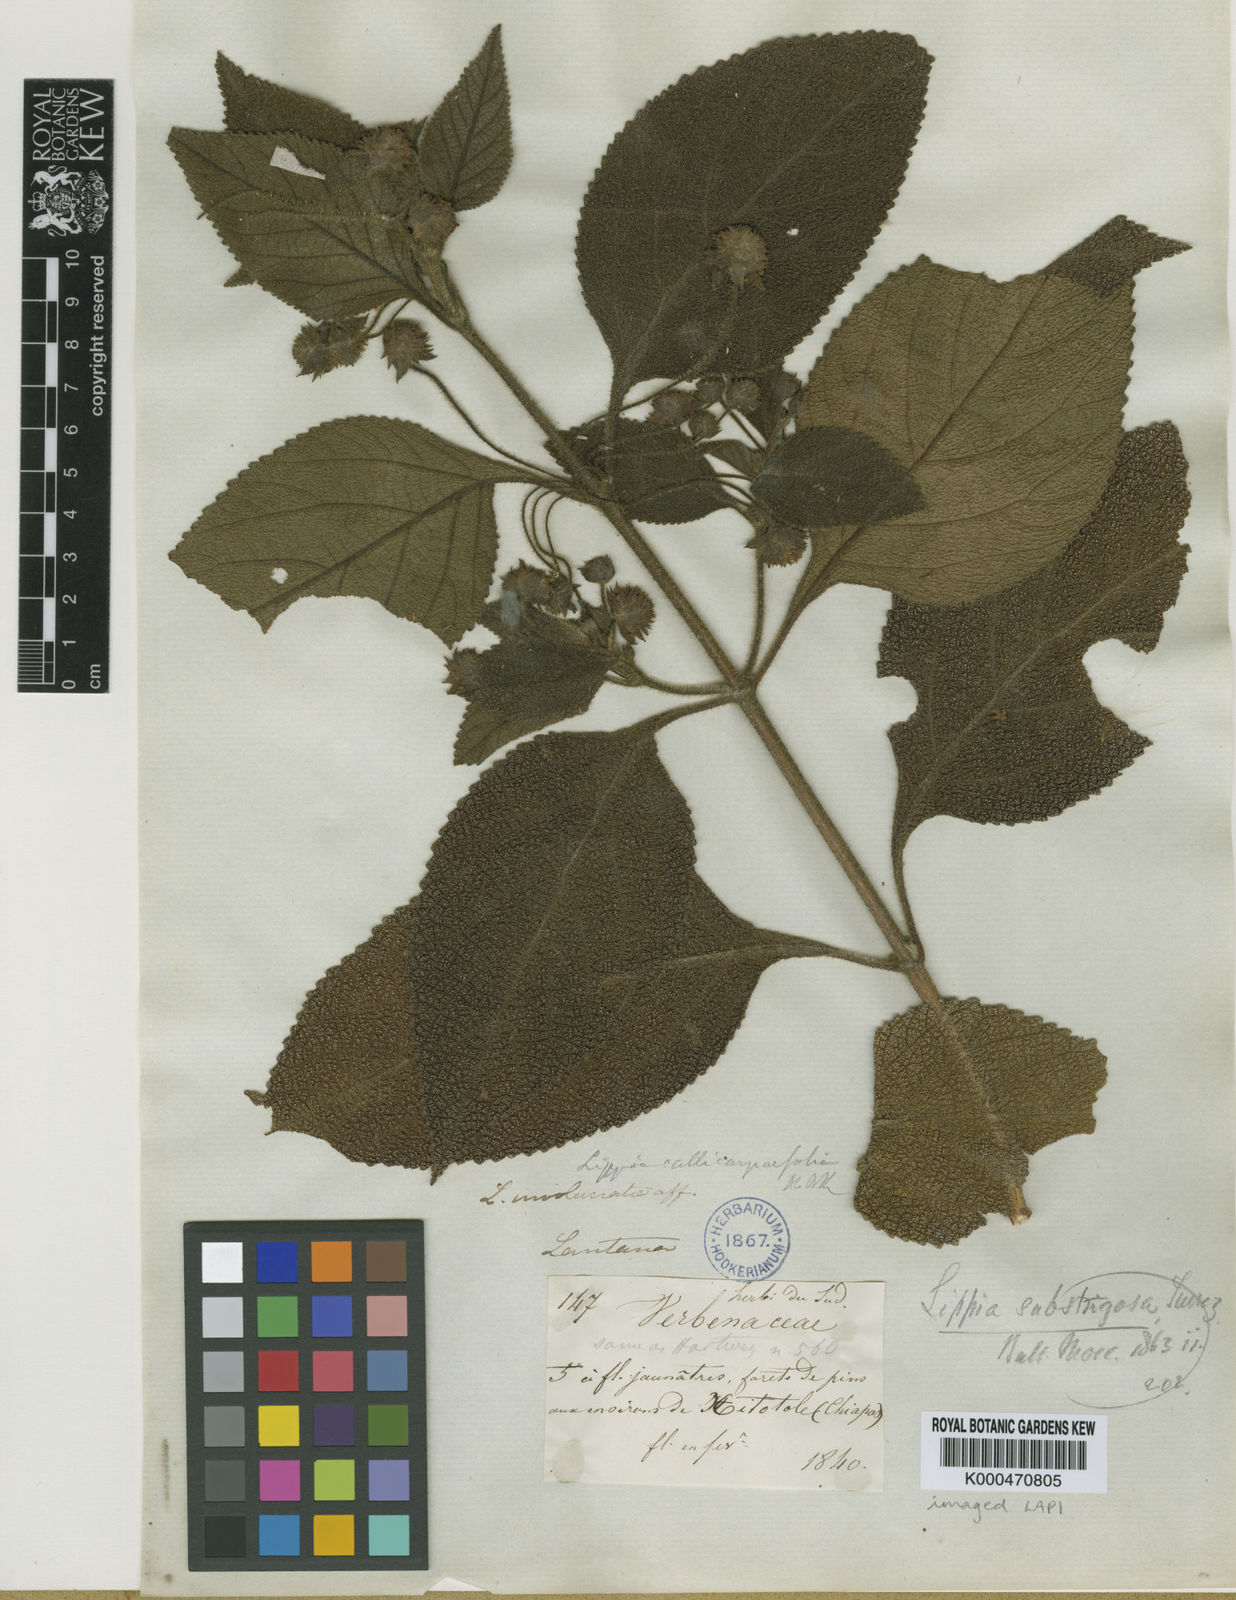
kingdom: Plantae
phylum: Tracheophyta
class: Magnoliopsida
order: Lamiales
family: Verbenaceae
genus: Lippia
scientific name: Lippia umbellata
